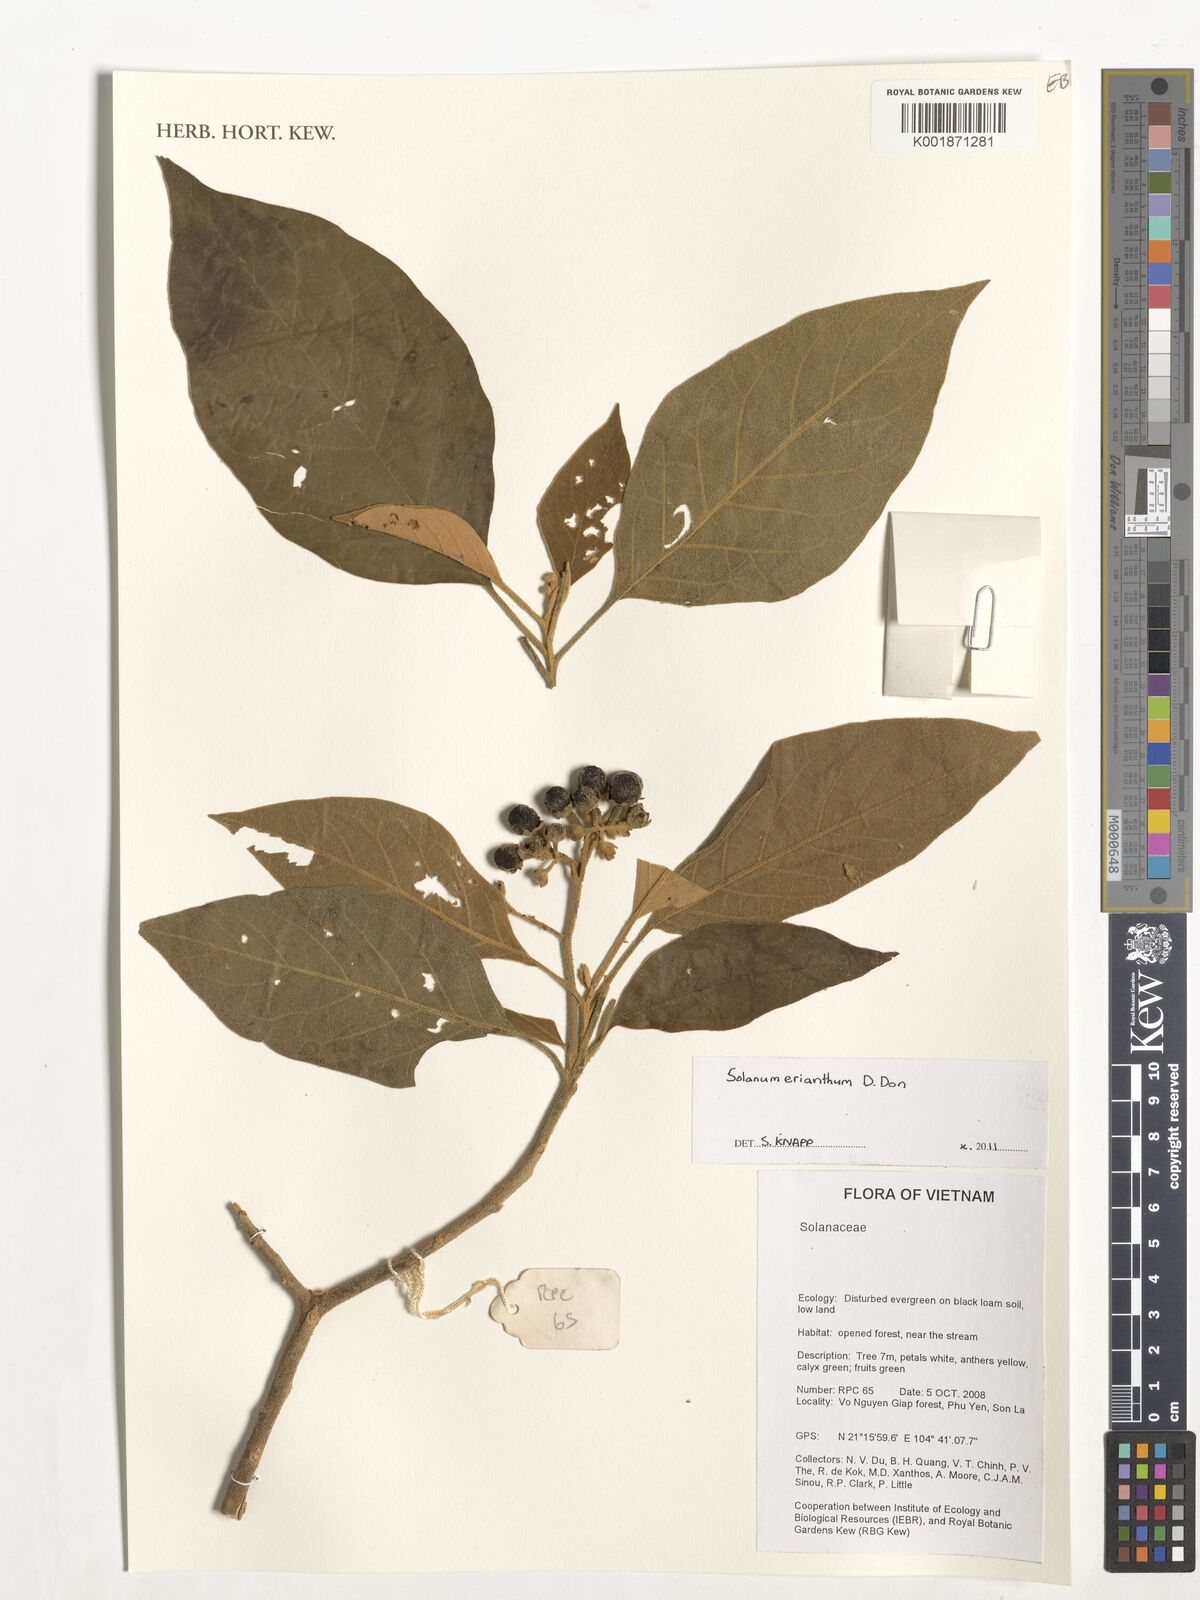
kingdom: Plantae
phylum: Tracheophyta
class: Magnoliopsida
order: Solanales
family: Solanaceae
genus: Solanum
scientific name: Solanum erianthum
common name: Tobacco-tree
